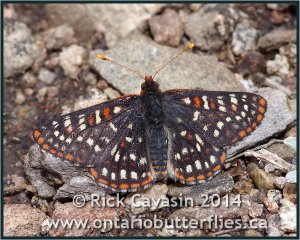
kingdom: Animalia
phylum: Arthropoda
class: Insecta
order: Lepidoptera
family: Nymphalidae
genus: Occidryas
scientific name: Occidryas chalcedona
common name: Chalcedon Checkerspot
